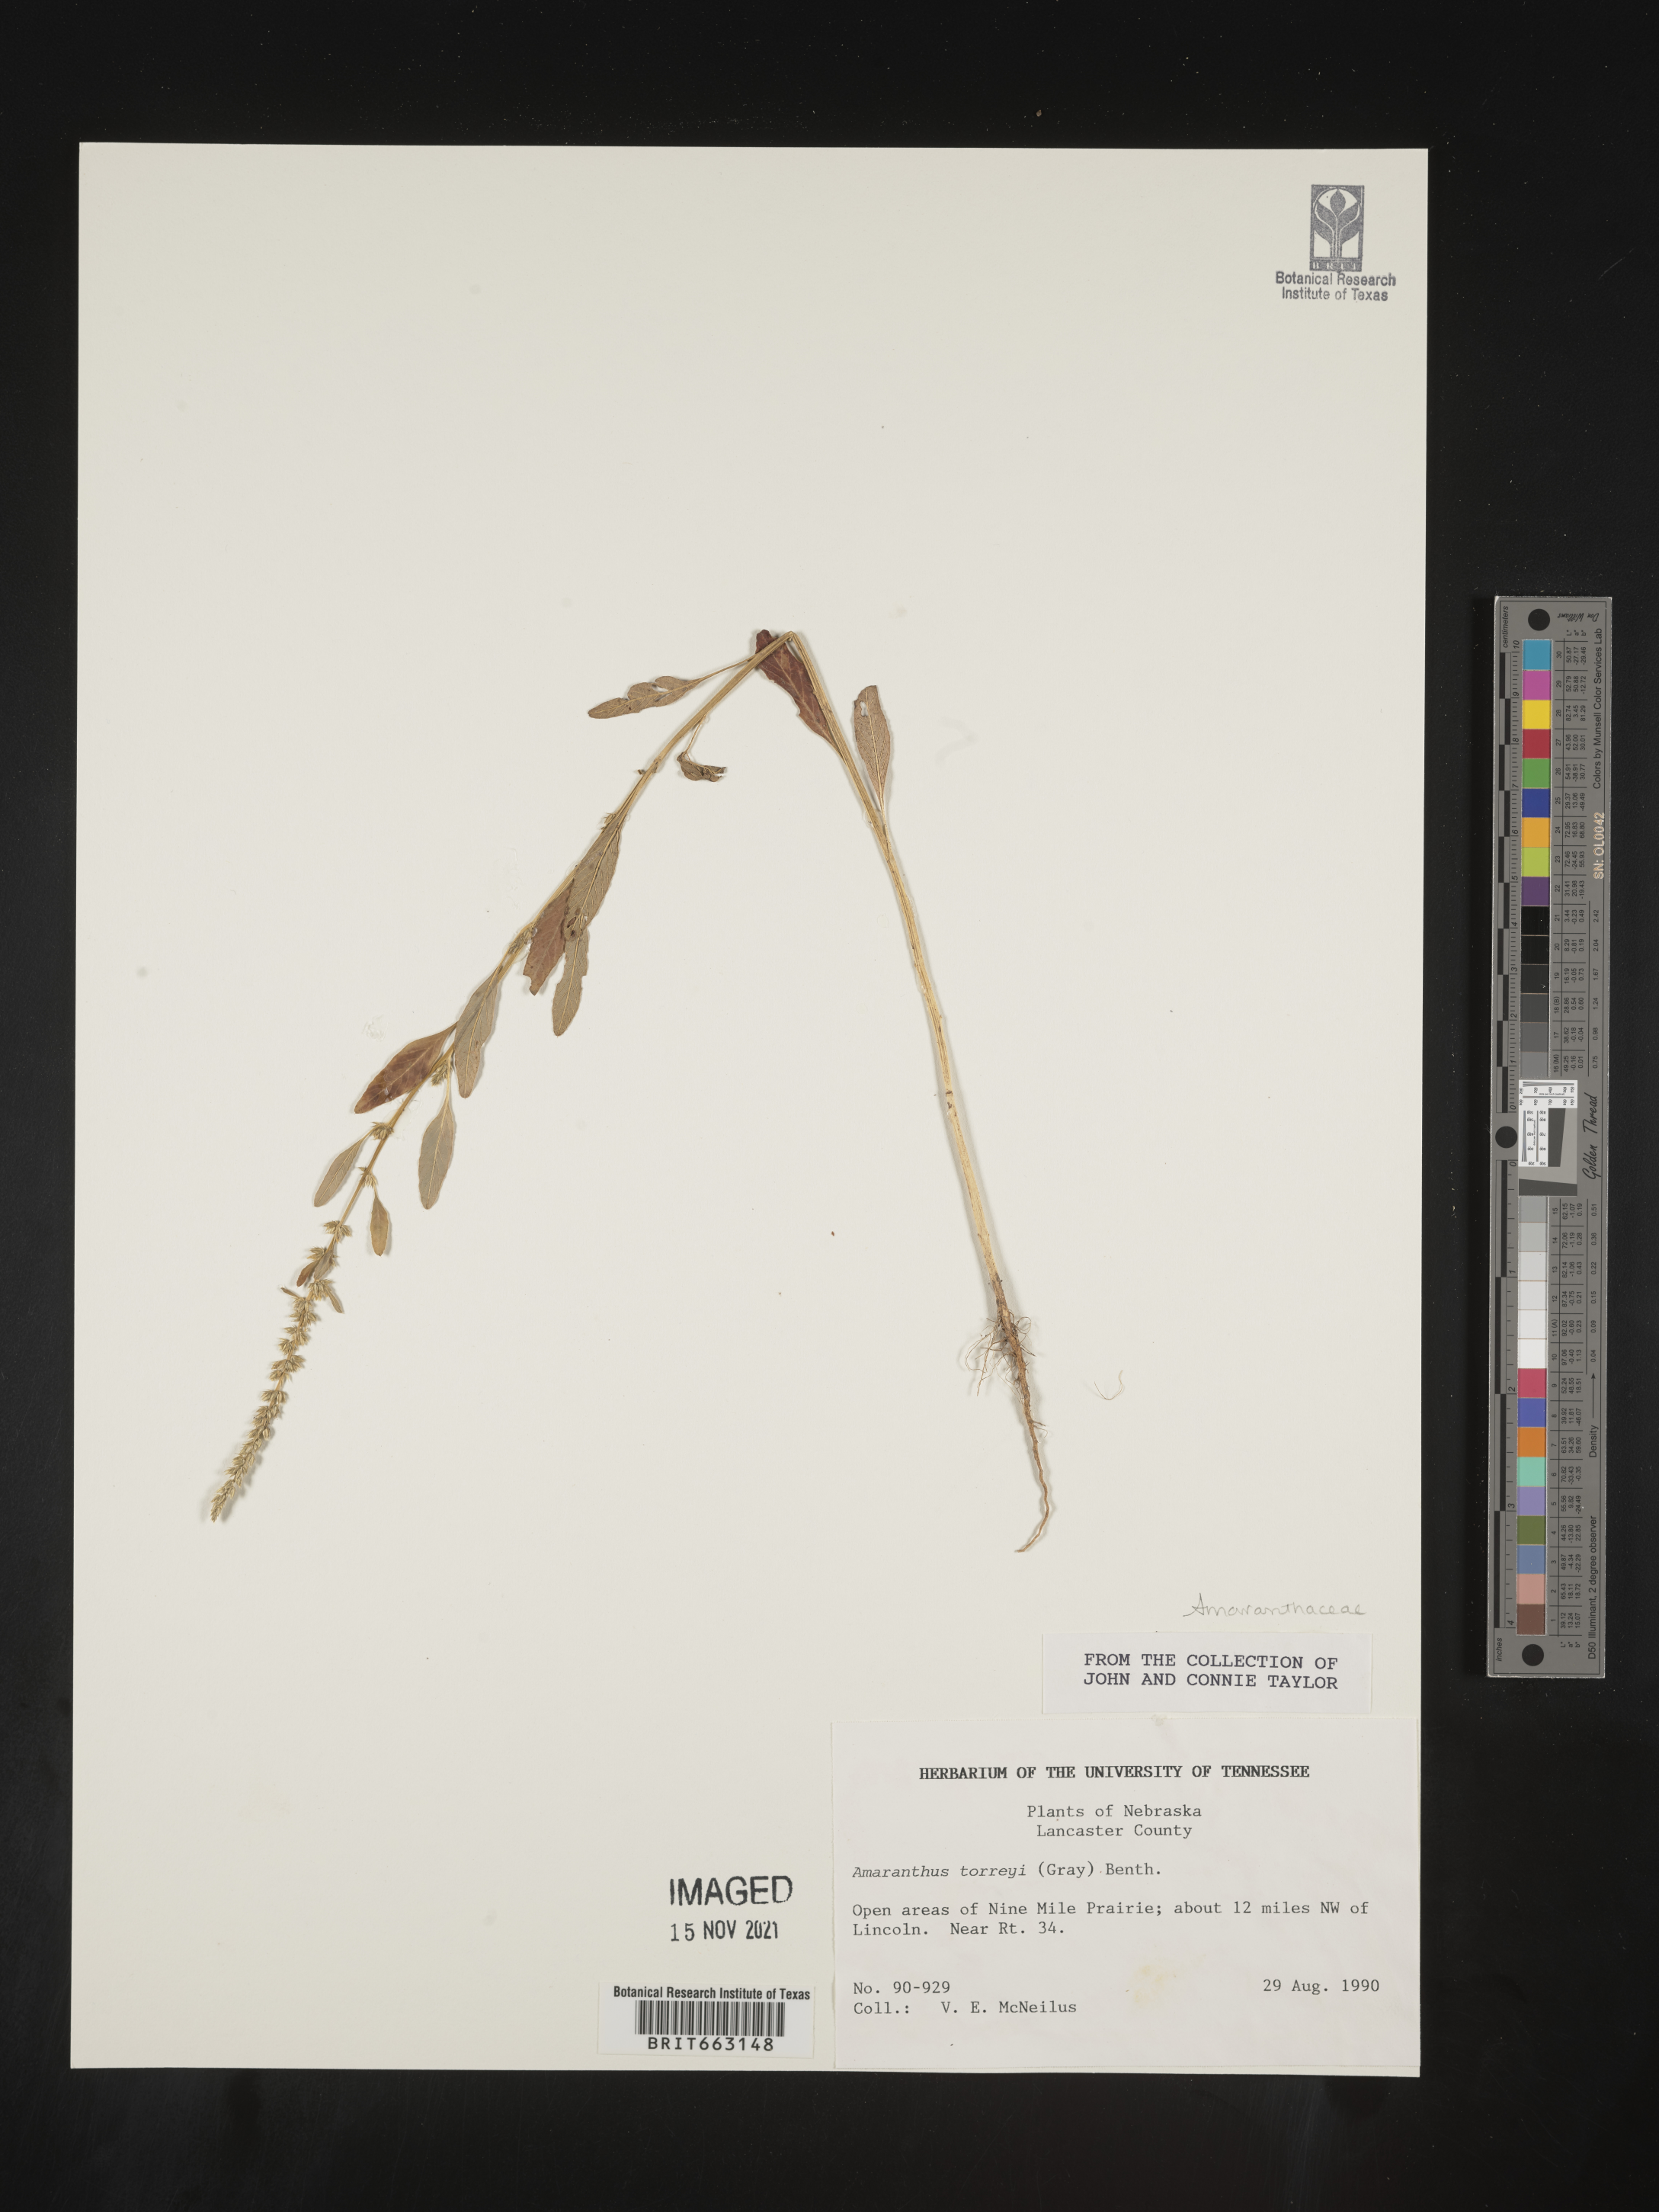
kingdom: Plantae
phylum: Tracheophyta
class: Magnoliopsida
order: Caryophyllales
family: Amaranthaceae
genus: Amaranthus
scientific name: Amaranthus
